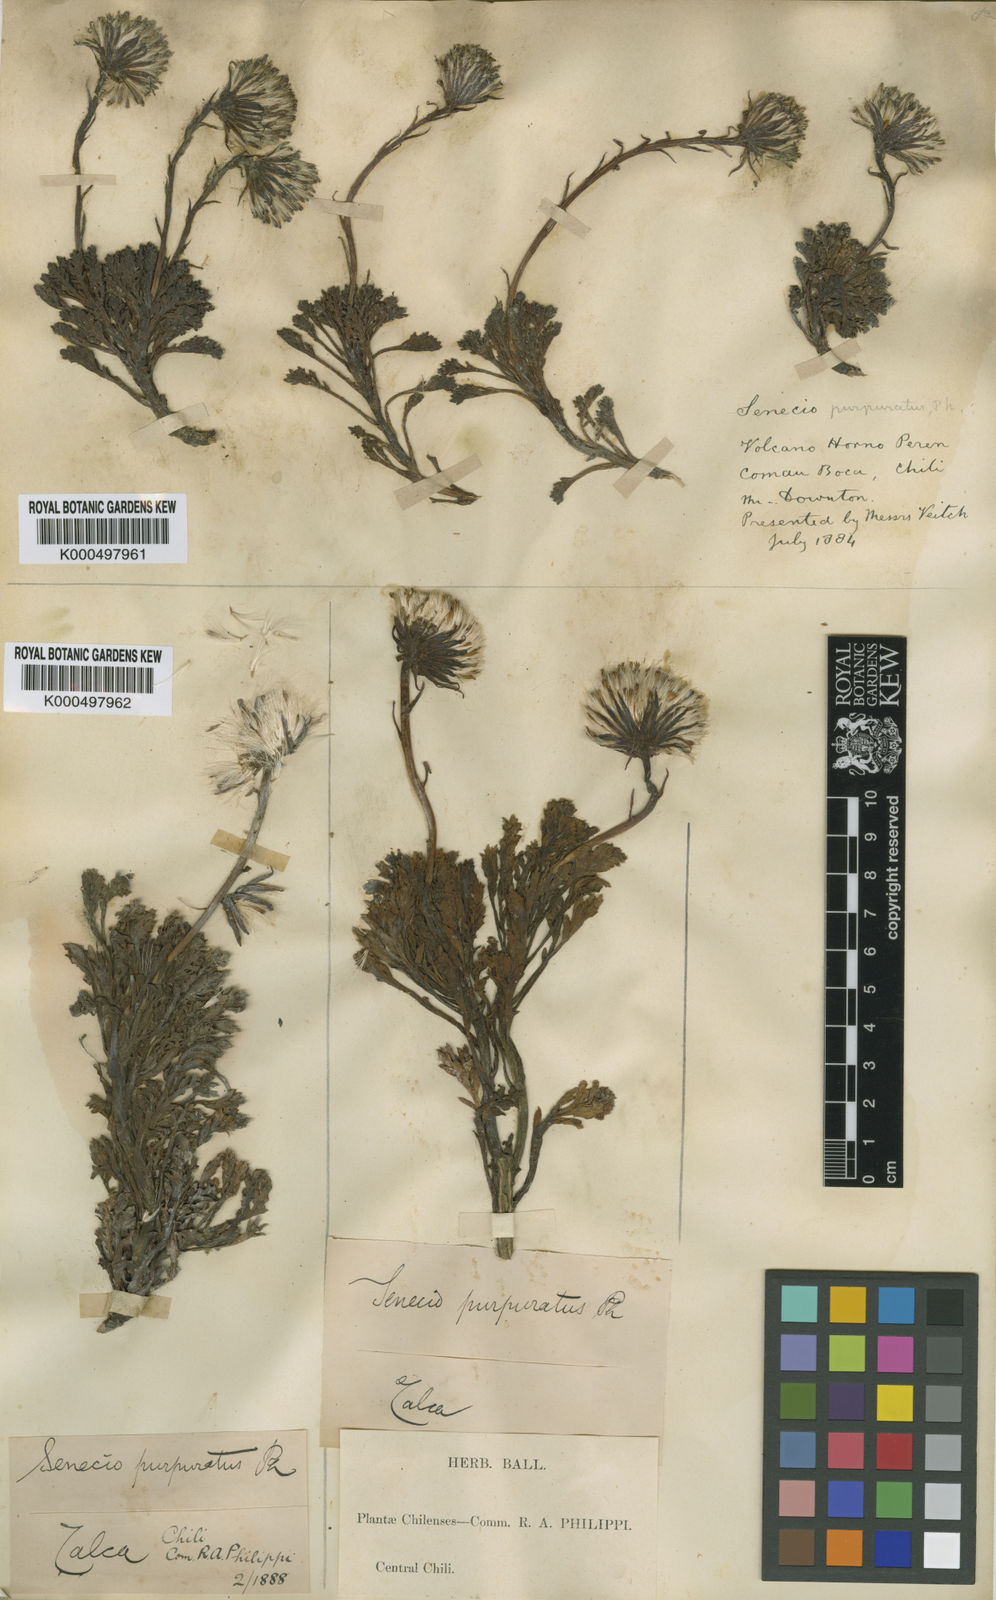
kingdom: Plantae
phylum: Tracheophyta
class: Magnoliopsida
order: Asterales
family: Asteraceae
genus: Senecio
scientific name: Senecio
